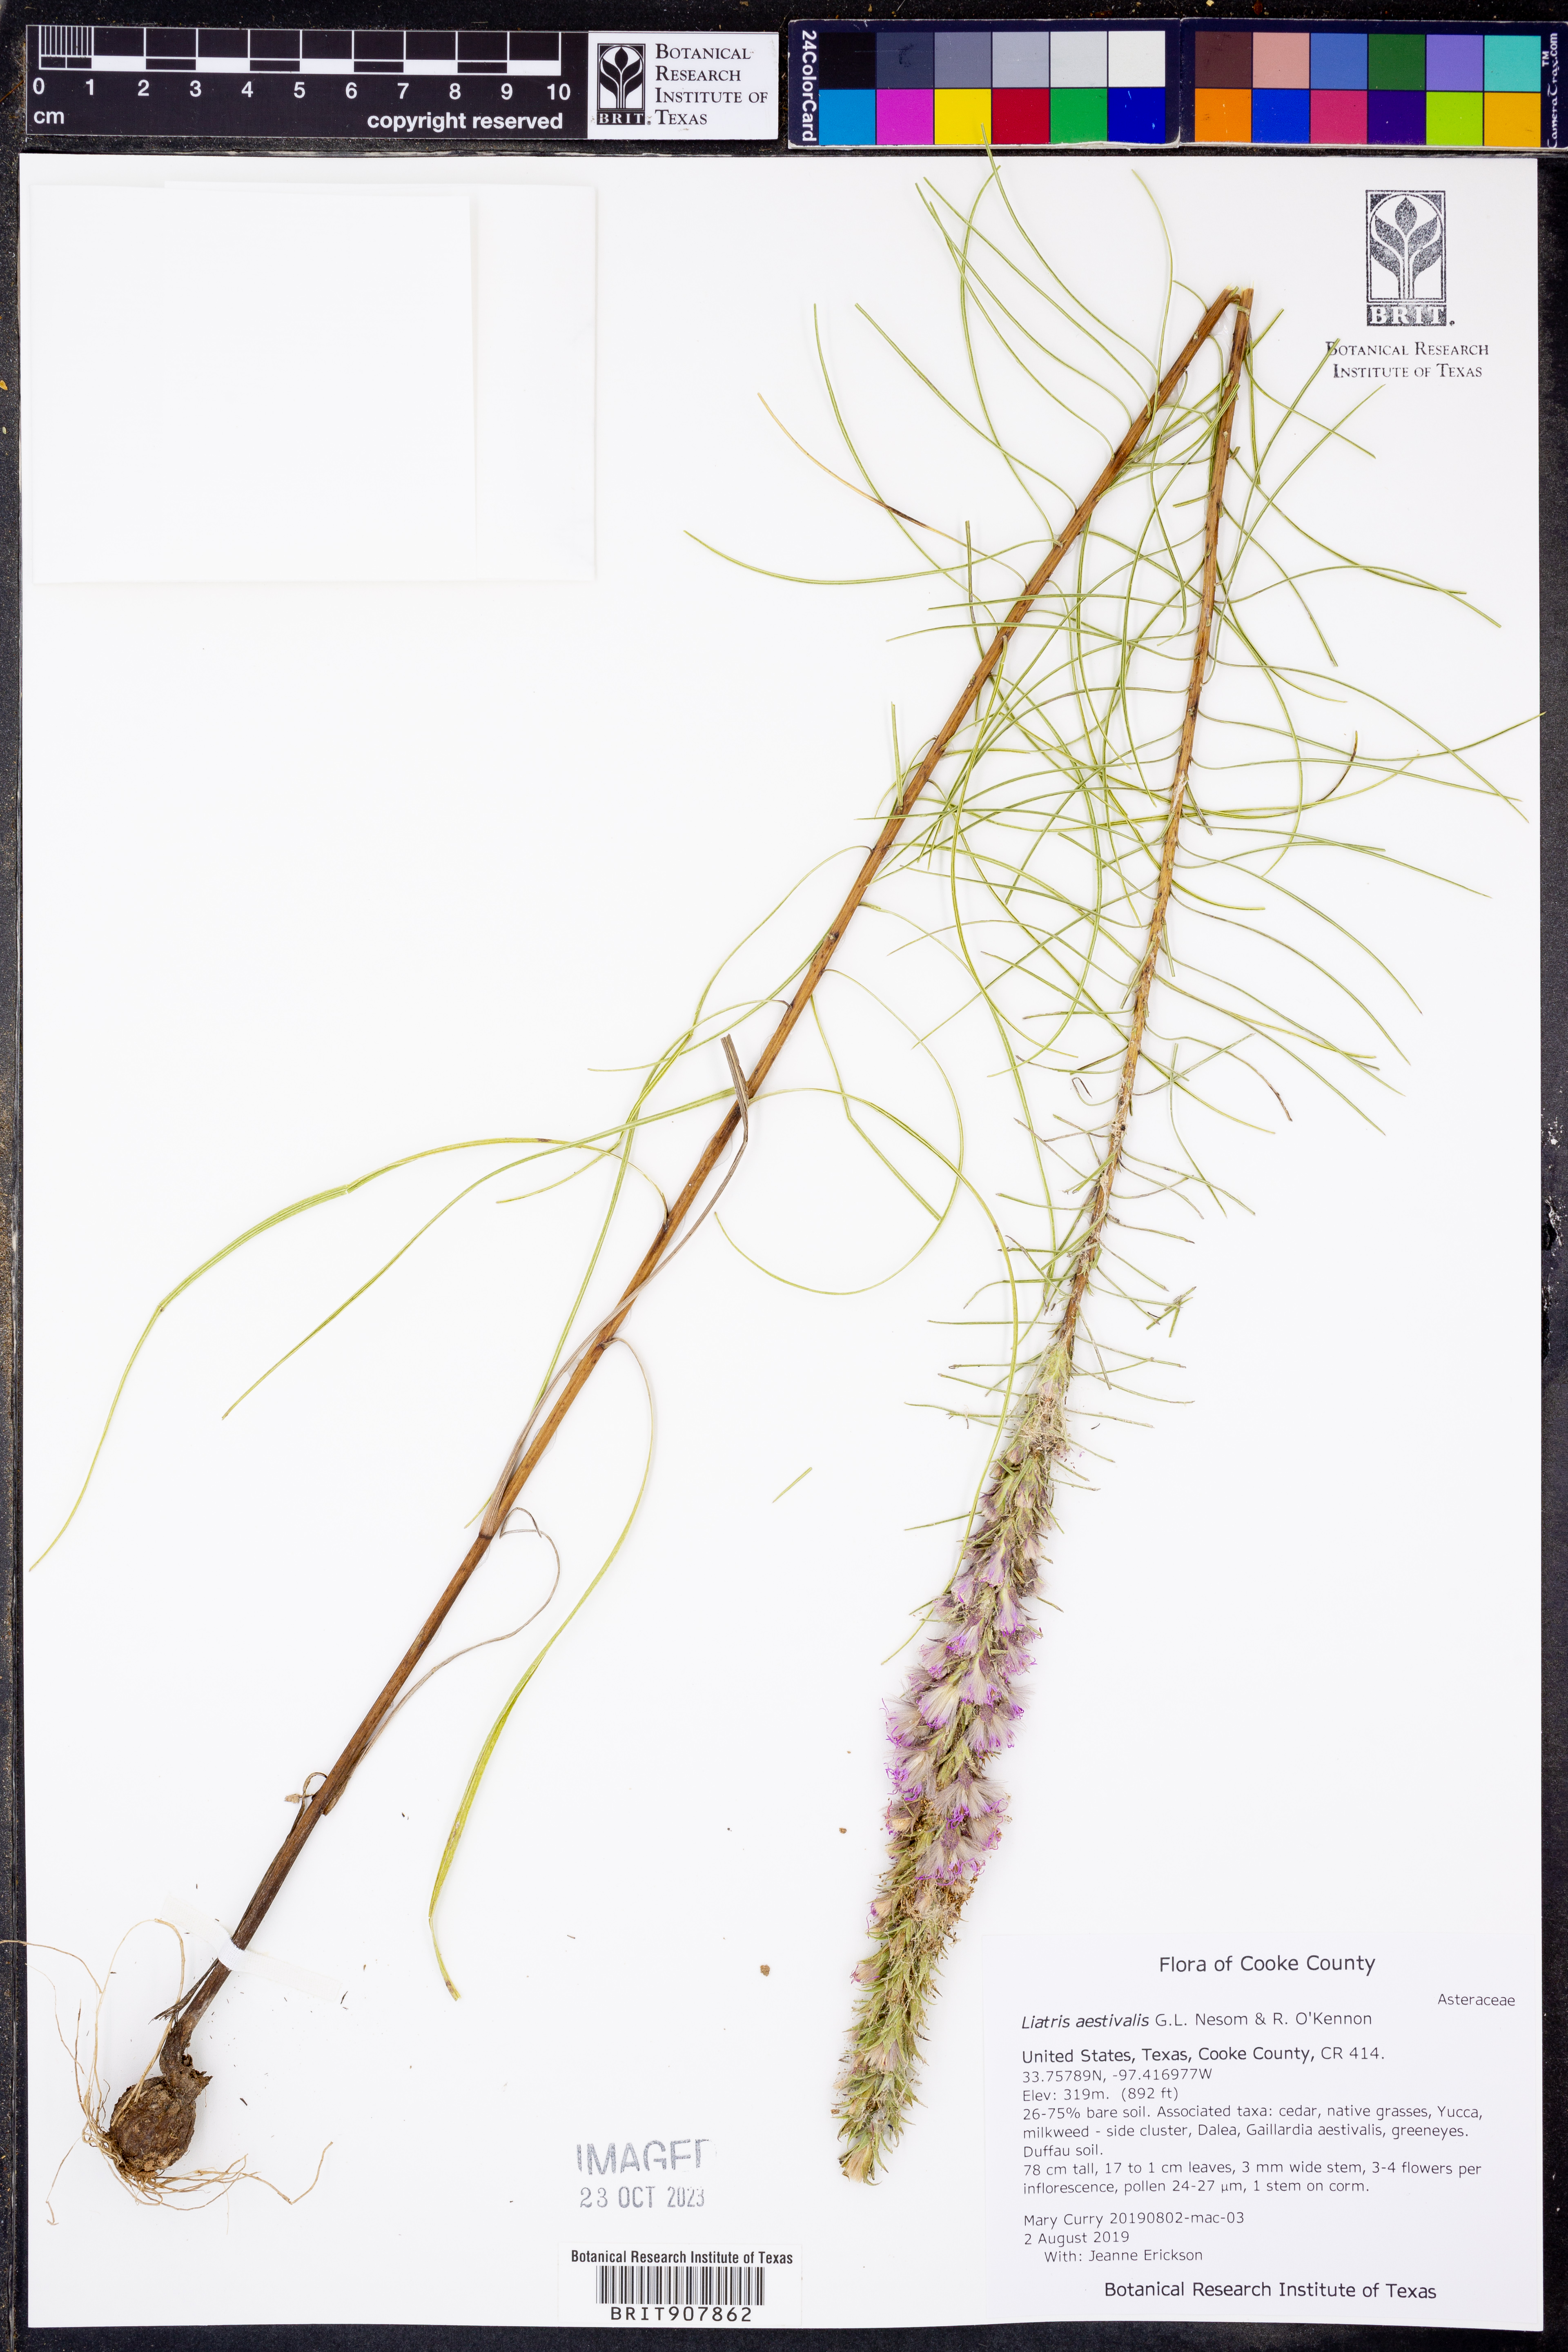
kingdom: Plantae
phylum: Tracheophyta
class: Magnoliopsida
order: Asterales
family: Asteraceae
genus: Liatris
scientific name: Liatris aestivalis
